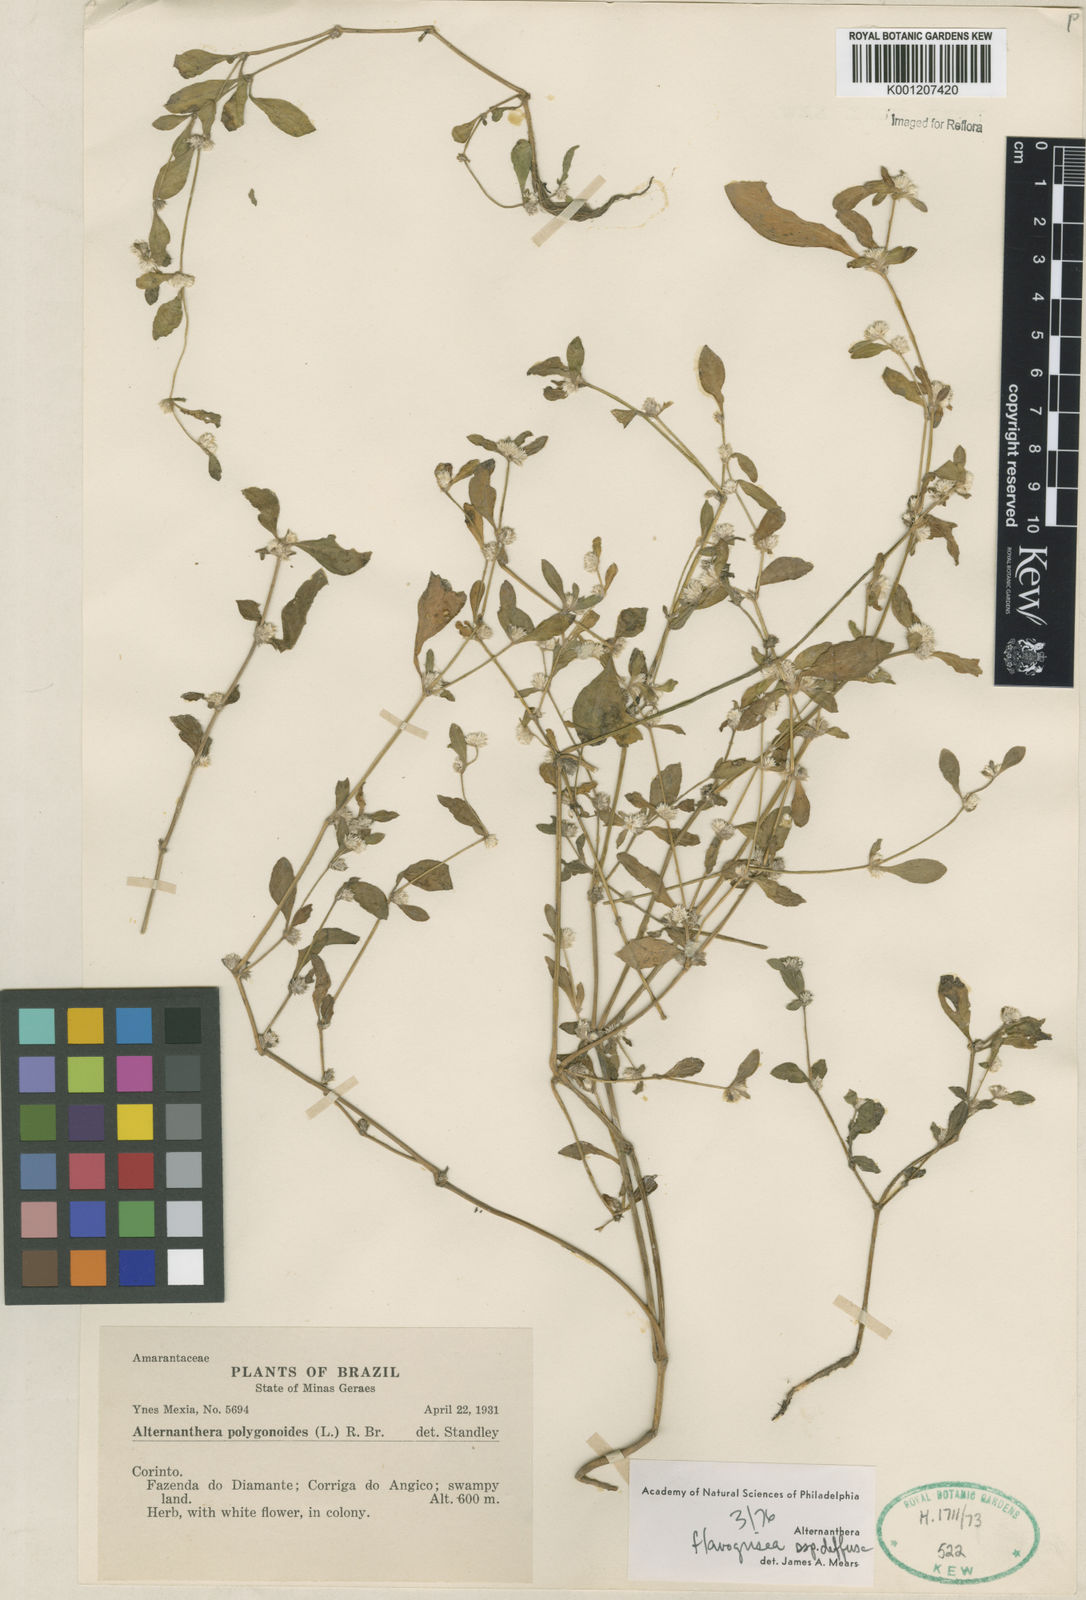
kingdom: Plantae
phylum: Tracheophyta
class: Magnoliopsida
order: Caryophyllales
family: Amaranthaceae
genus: Alternanthera
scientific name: Alternanthera halimifolia
